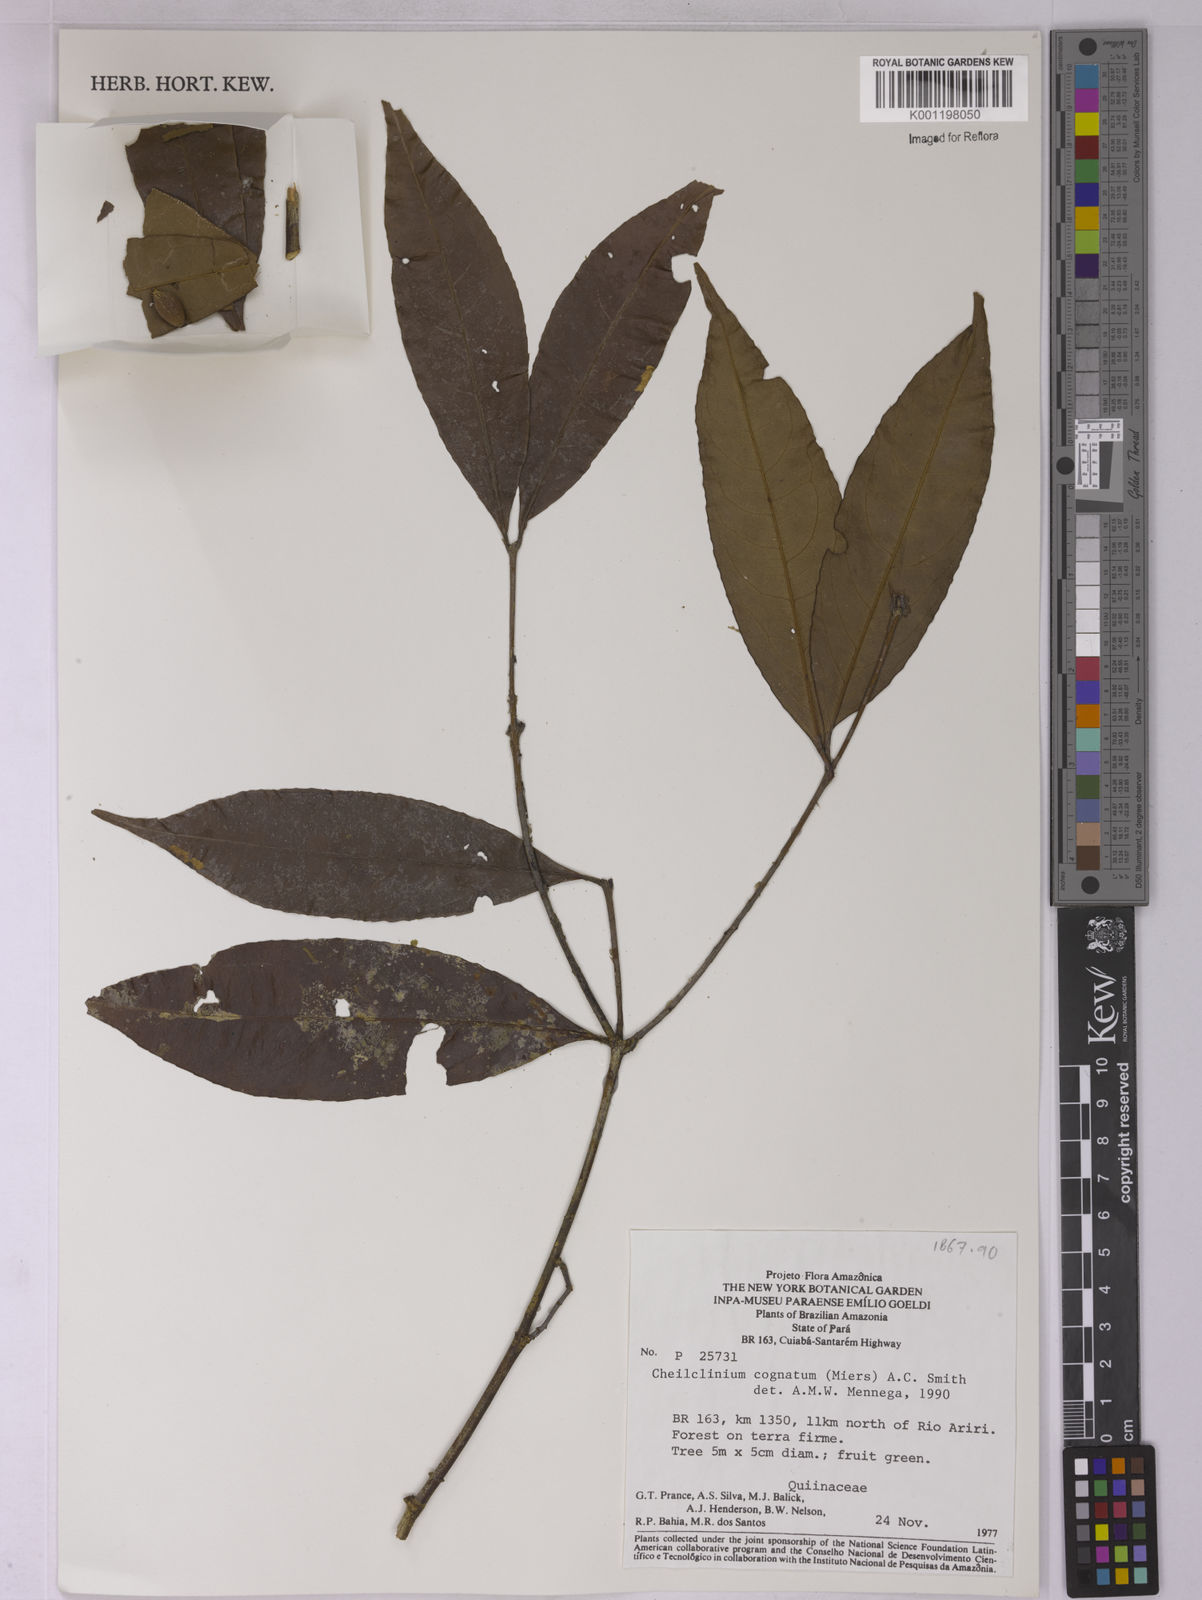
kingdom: Plantae
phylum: Tracheophyta
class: Magnoliopsida
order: Celastrales
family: Celastraceae
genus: Cheiloclinium
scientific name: Cheiloclinium cognatum
